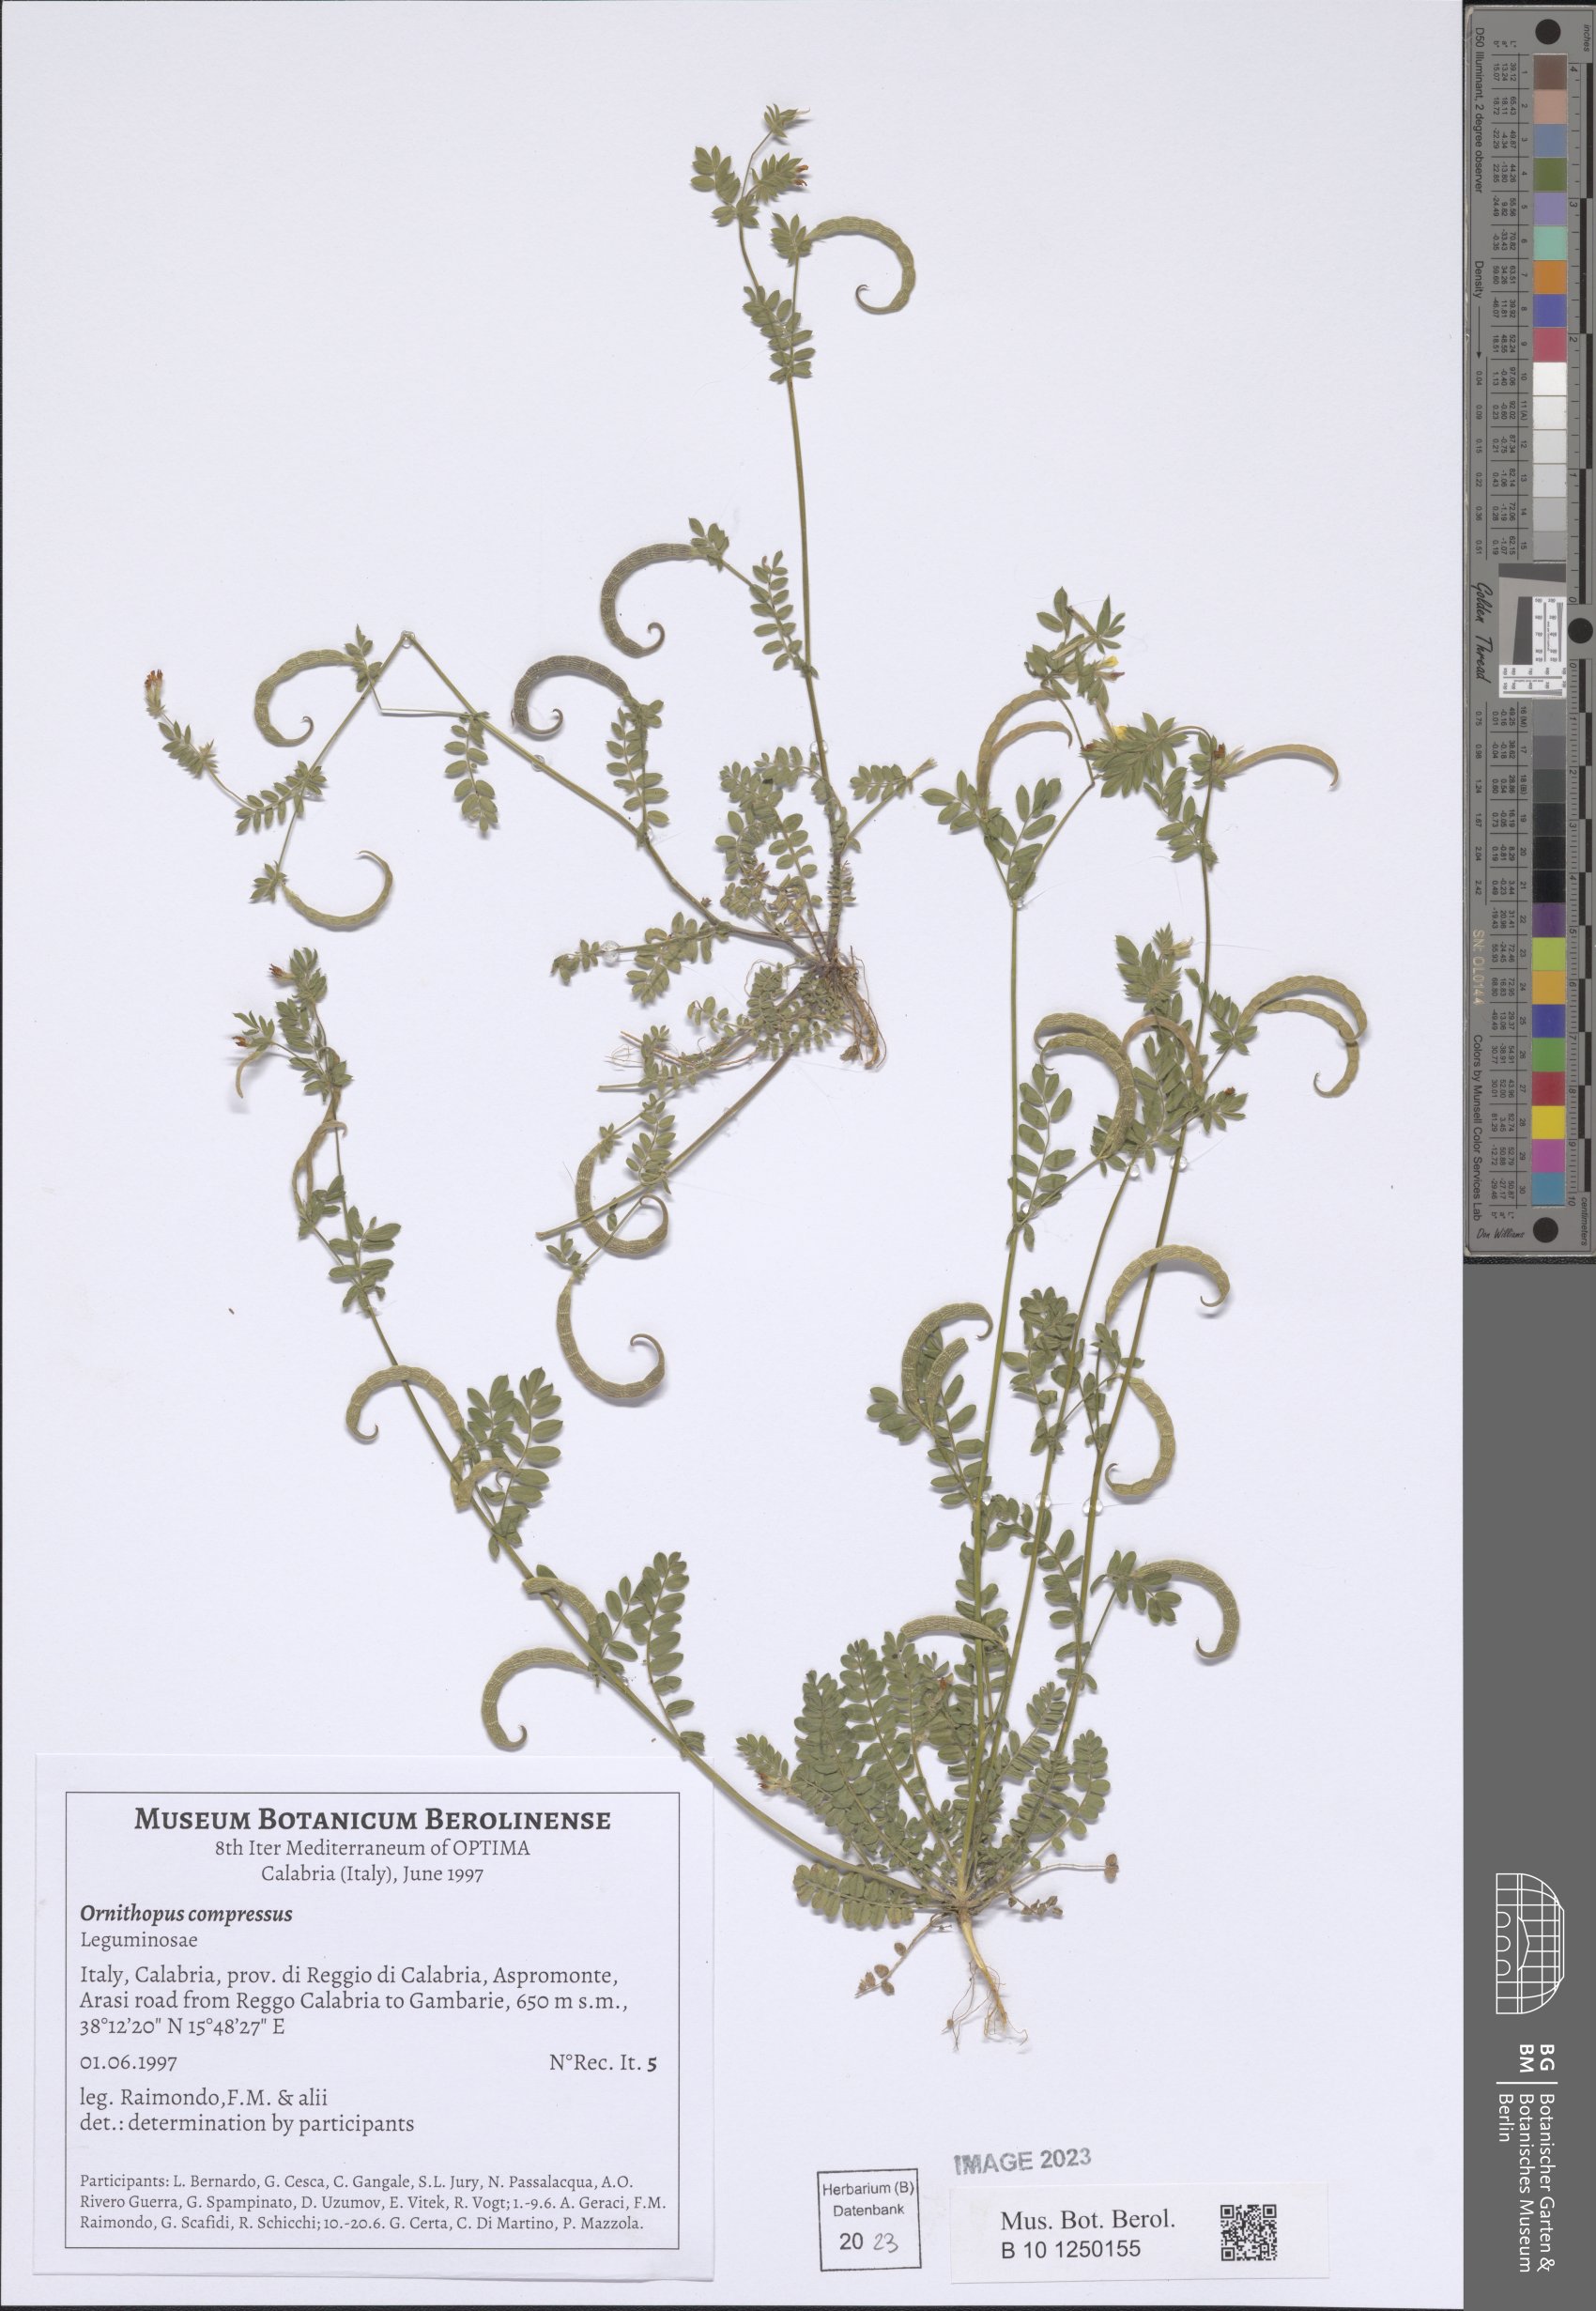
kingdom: Plantae
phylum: Tracheophyta
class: Magnoliopsida
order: Fabales
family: Fabaceae
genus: Ornithopus
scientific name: Ornithopus compressus
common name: Yellow serradella
